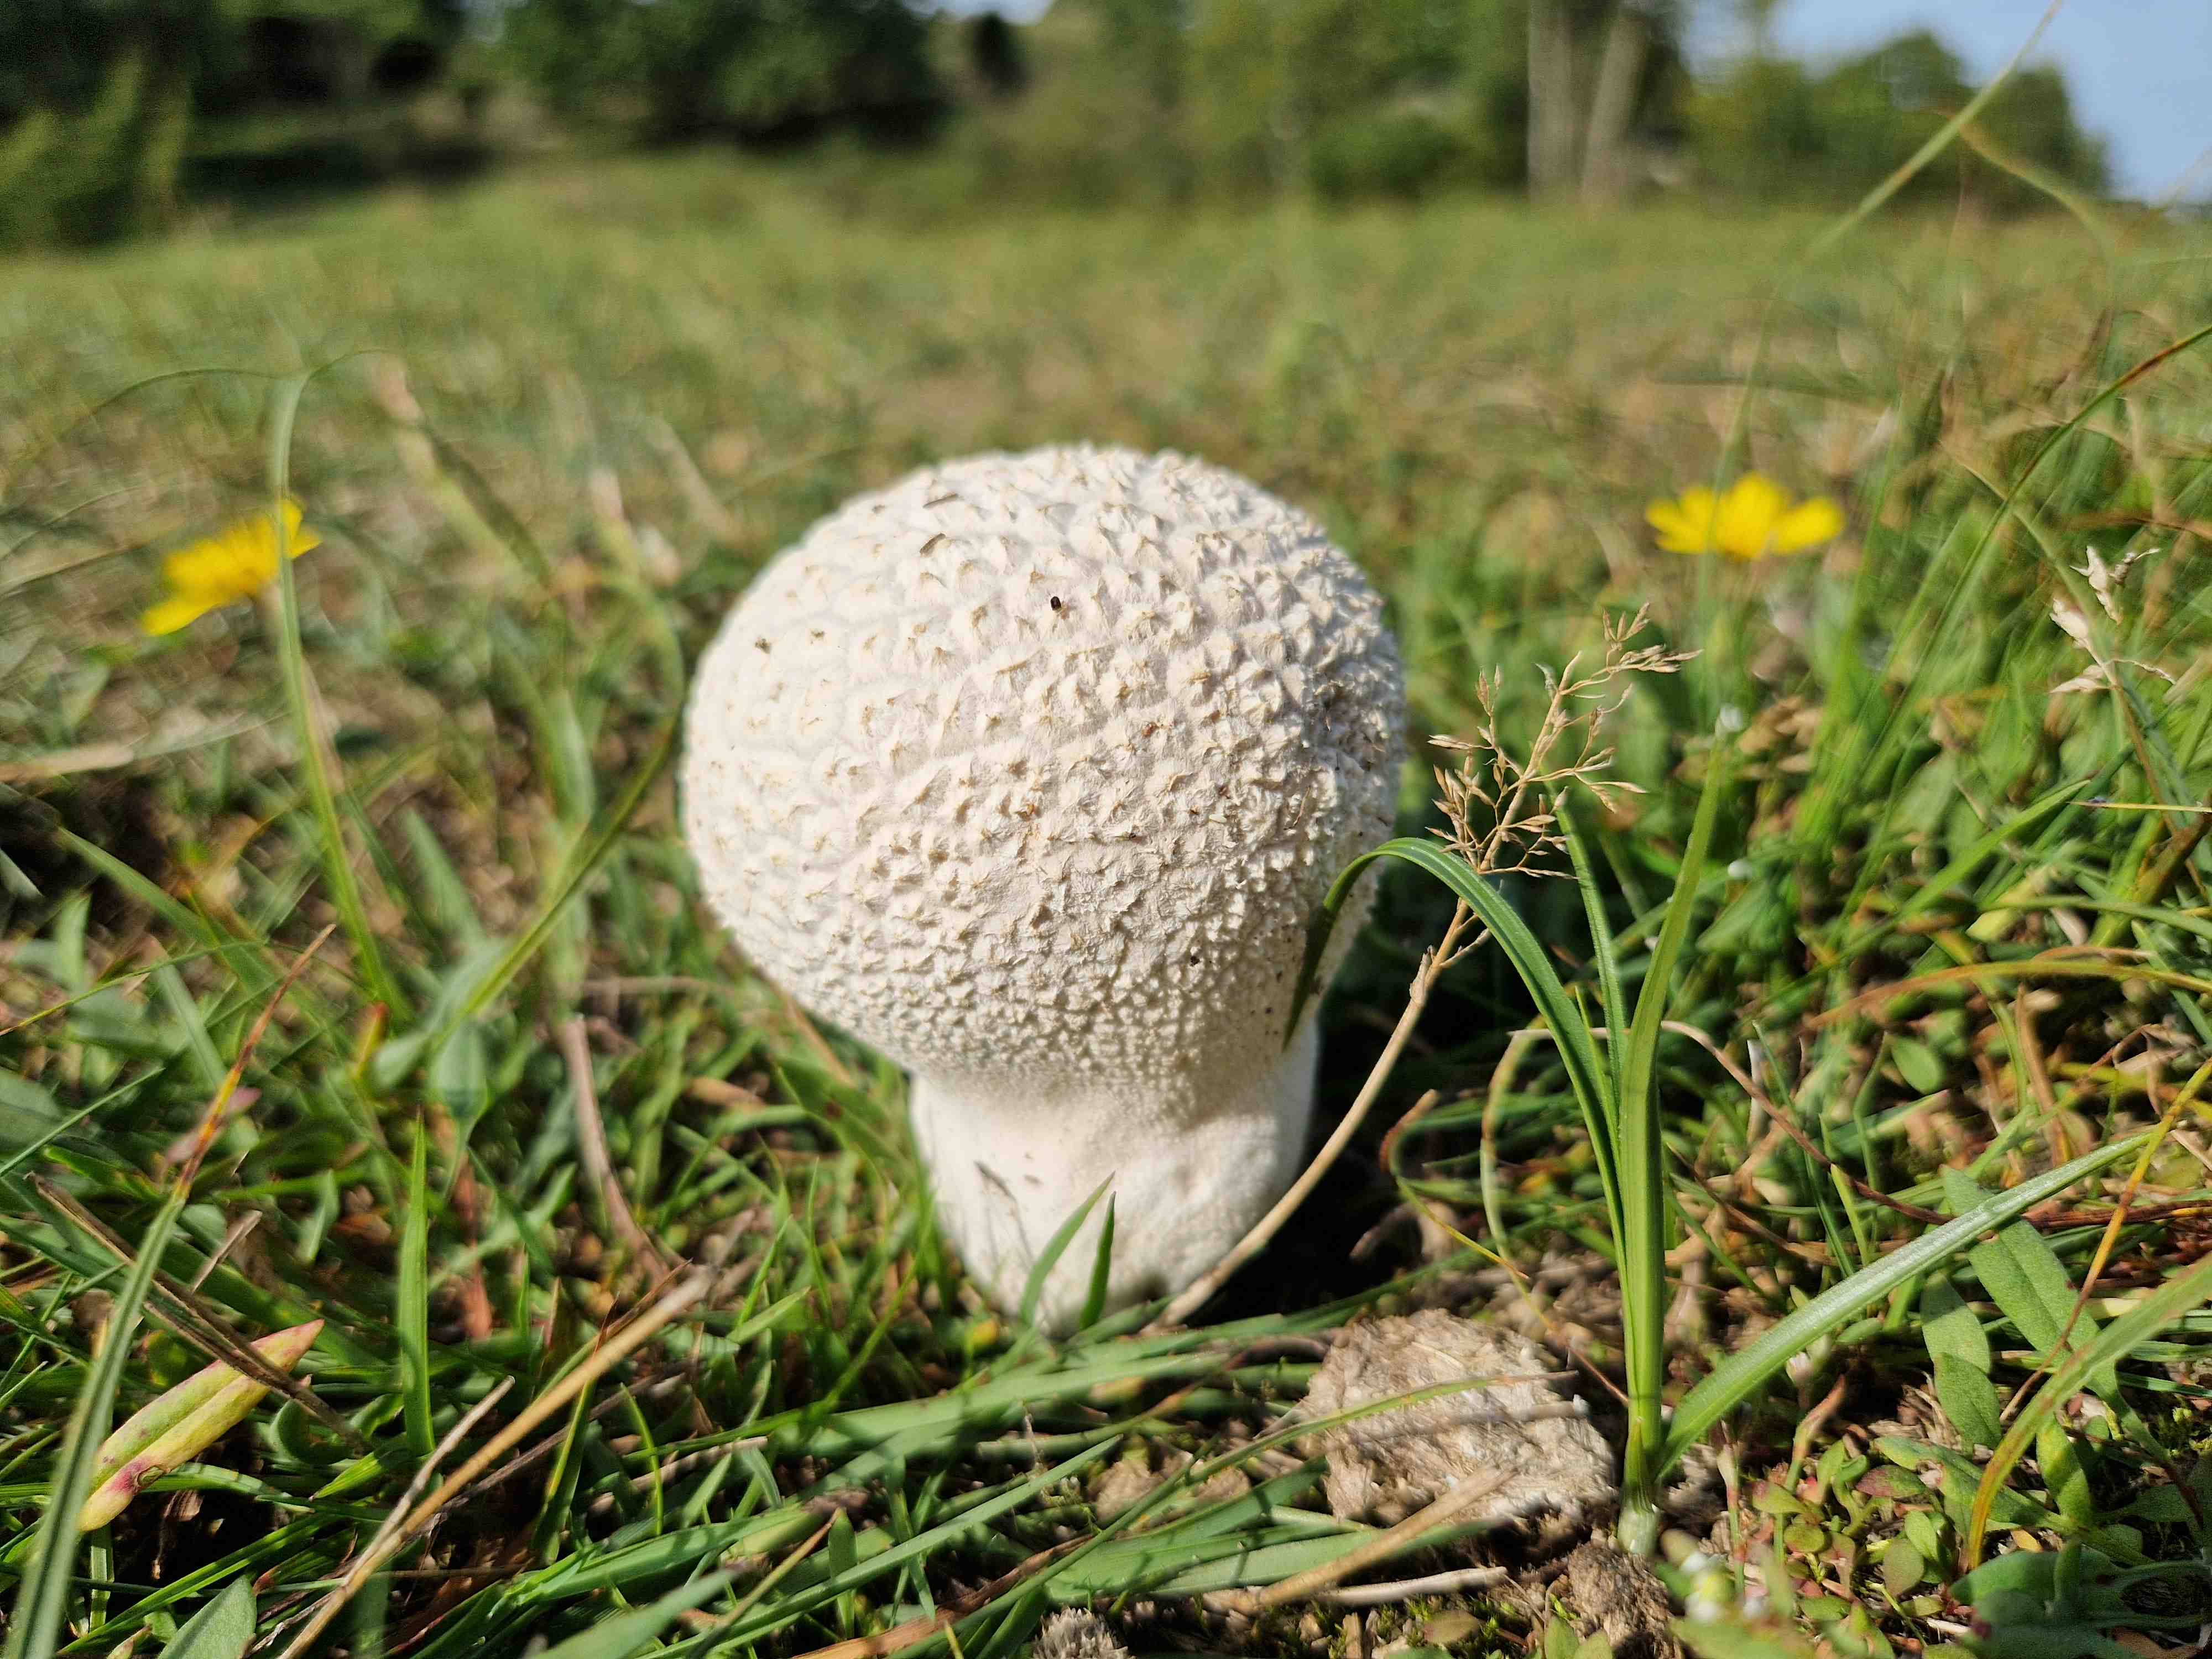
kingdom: Fungi
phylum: Basidiomycota
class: Agaricomycetes
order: Agaricales
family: Lycoperdaceae
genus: Bovistella
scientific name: Bovistella utriformis
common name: skællet støvbold
